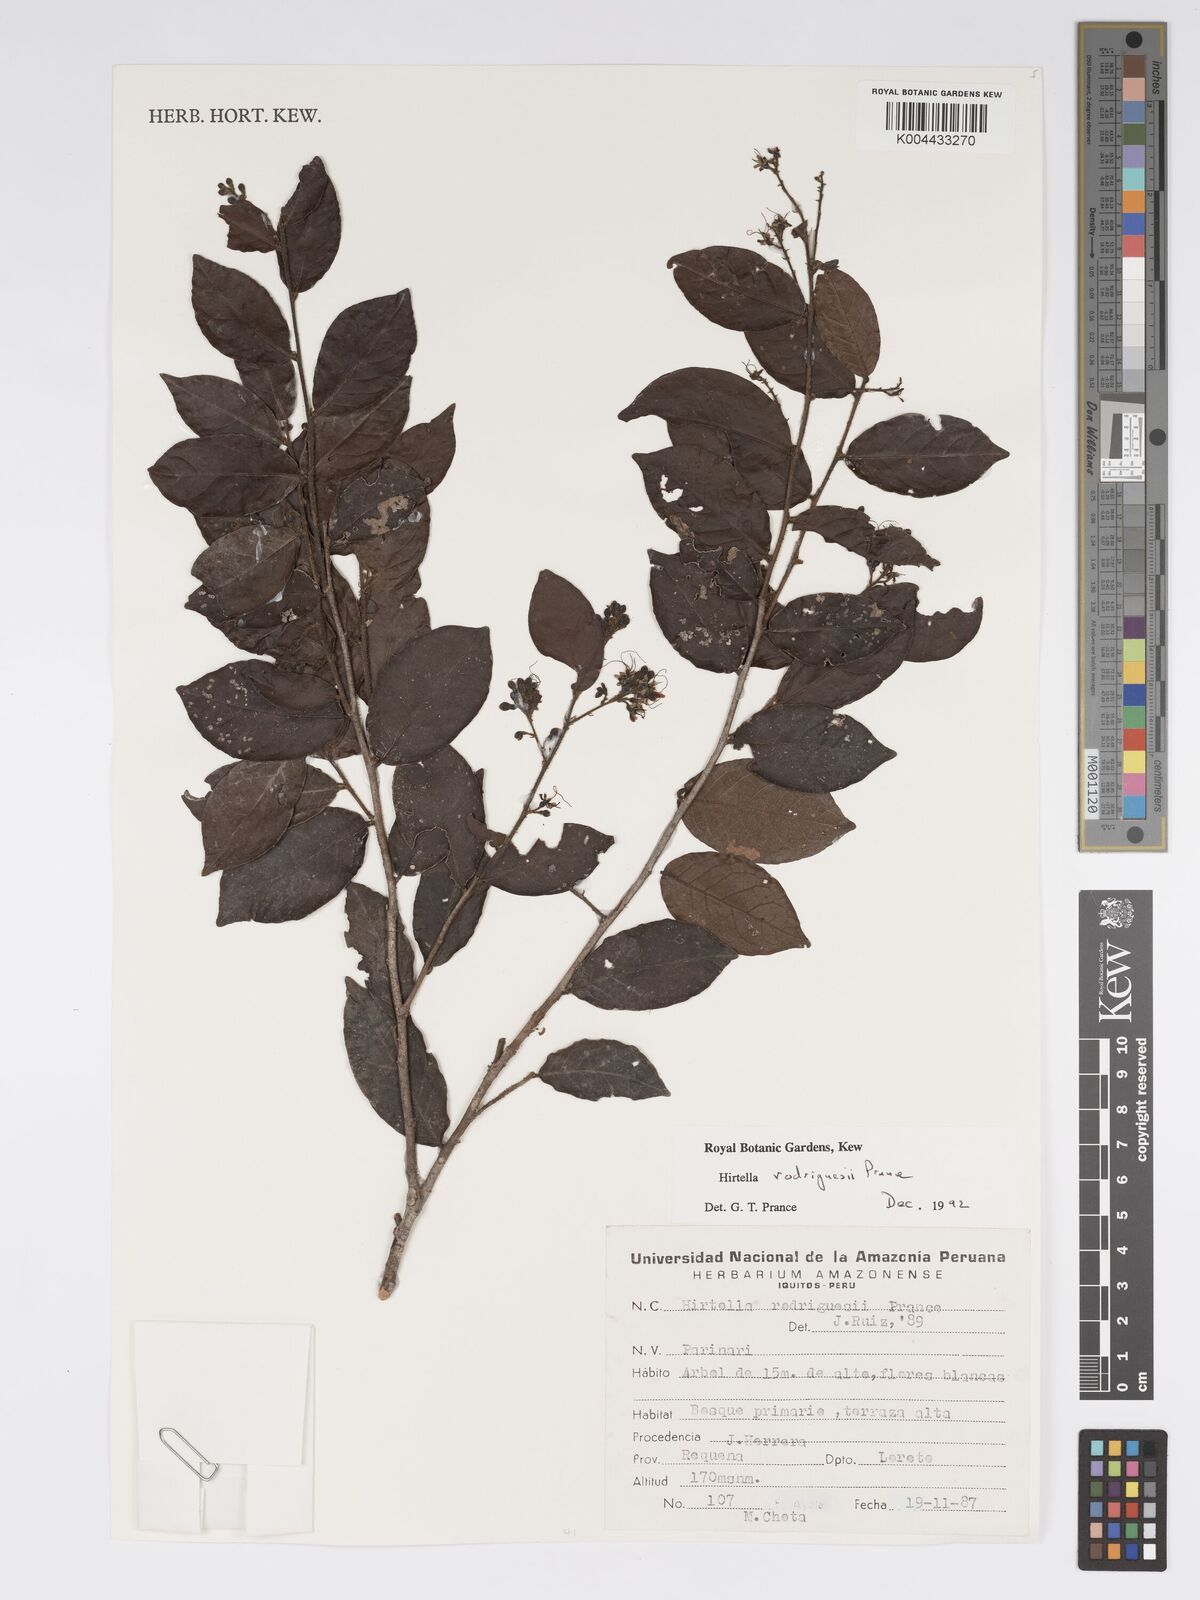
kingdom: Plantae
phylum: Tracheophyta
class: Magnoliopsida
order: Malpighiales
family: Chrysobalanaceae
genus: Hirtella
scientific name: Hirtella rodriguesii
